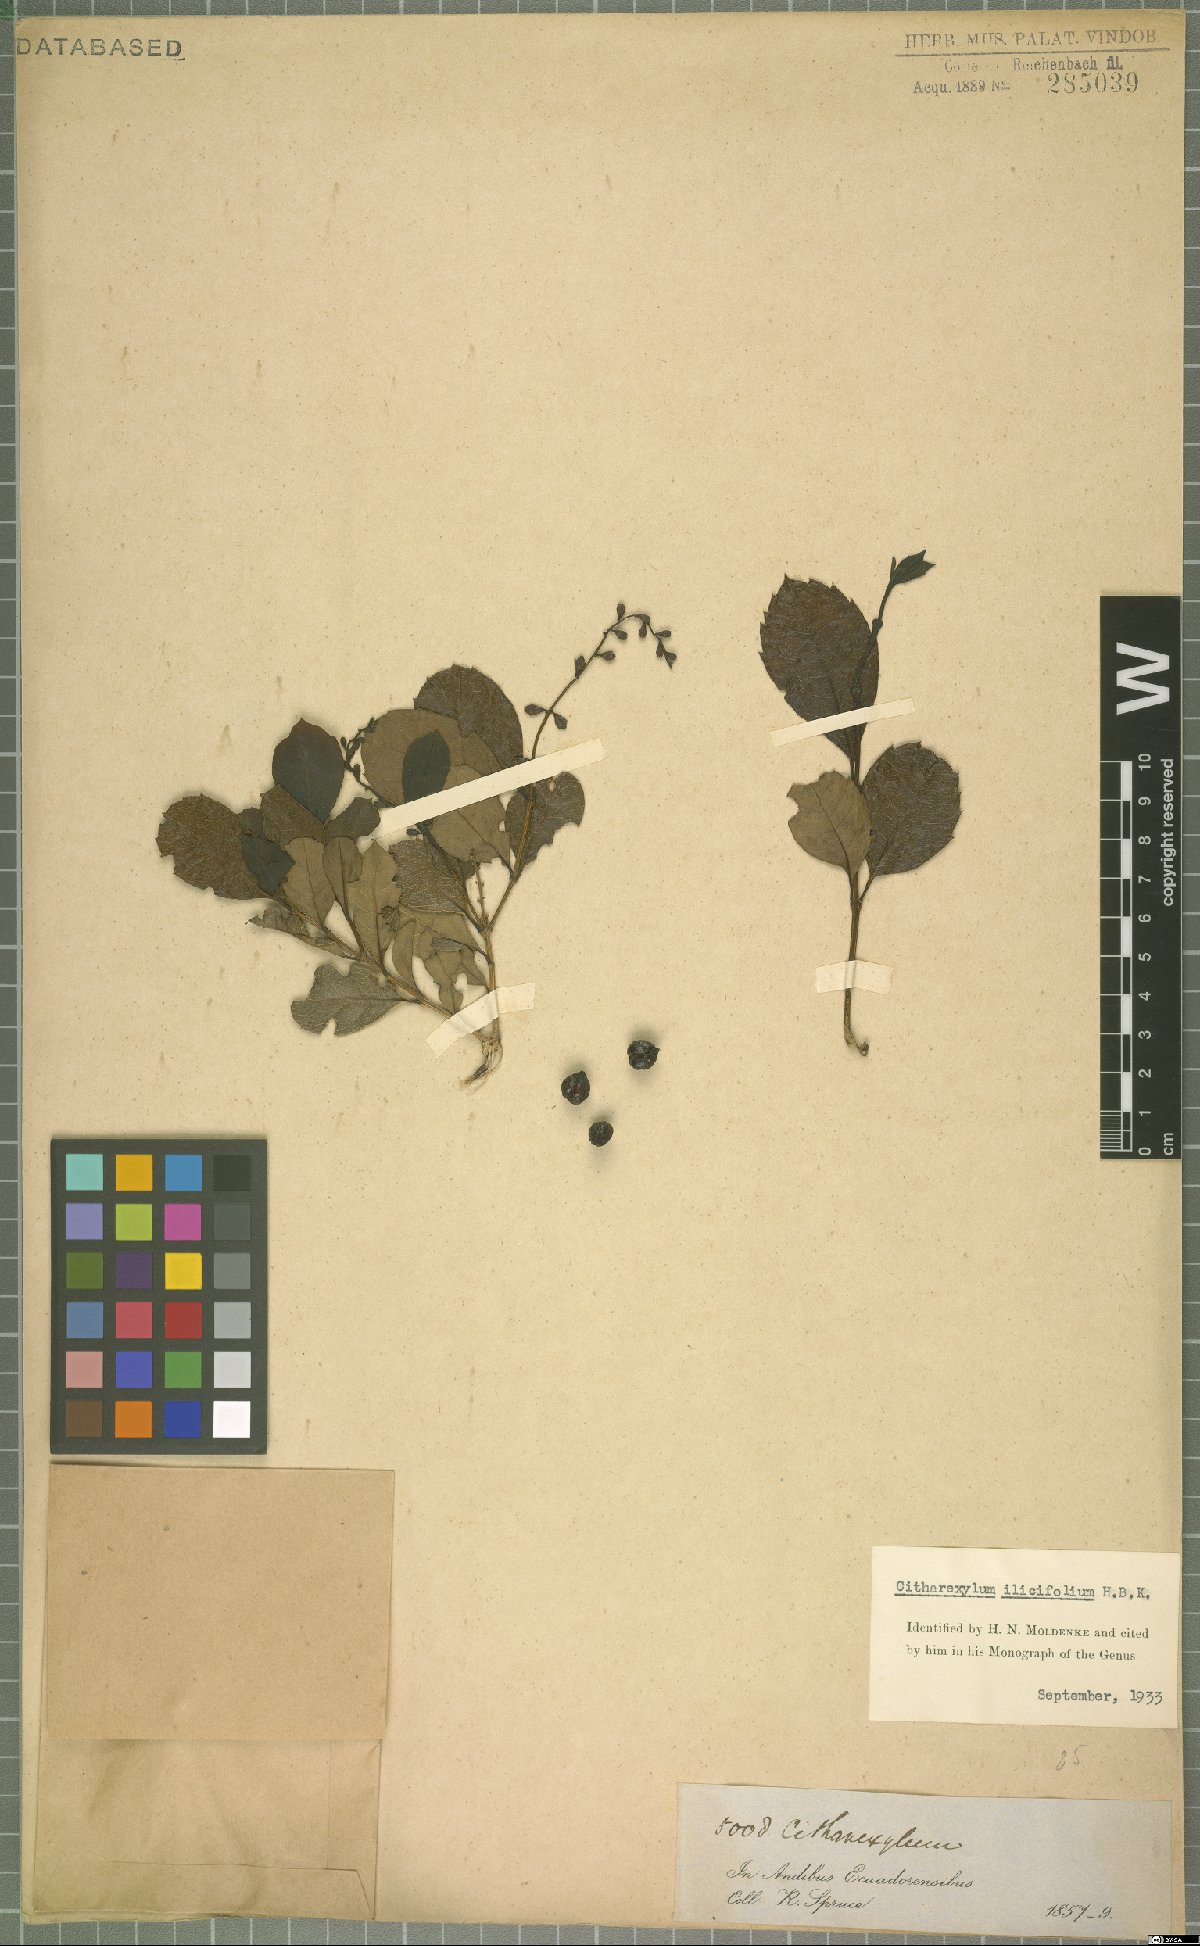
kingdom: Plantae
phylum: Tracheophyta
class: Magnoliopsida
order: Lamiales
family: Verbenaceae
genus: Citharexylum
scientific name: Citharexylum ilicifolium
